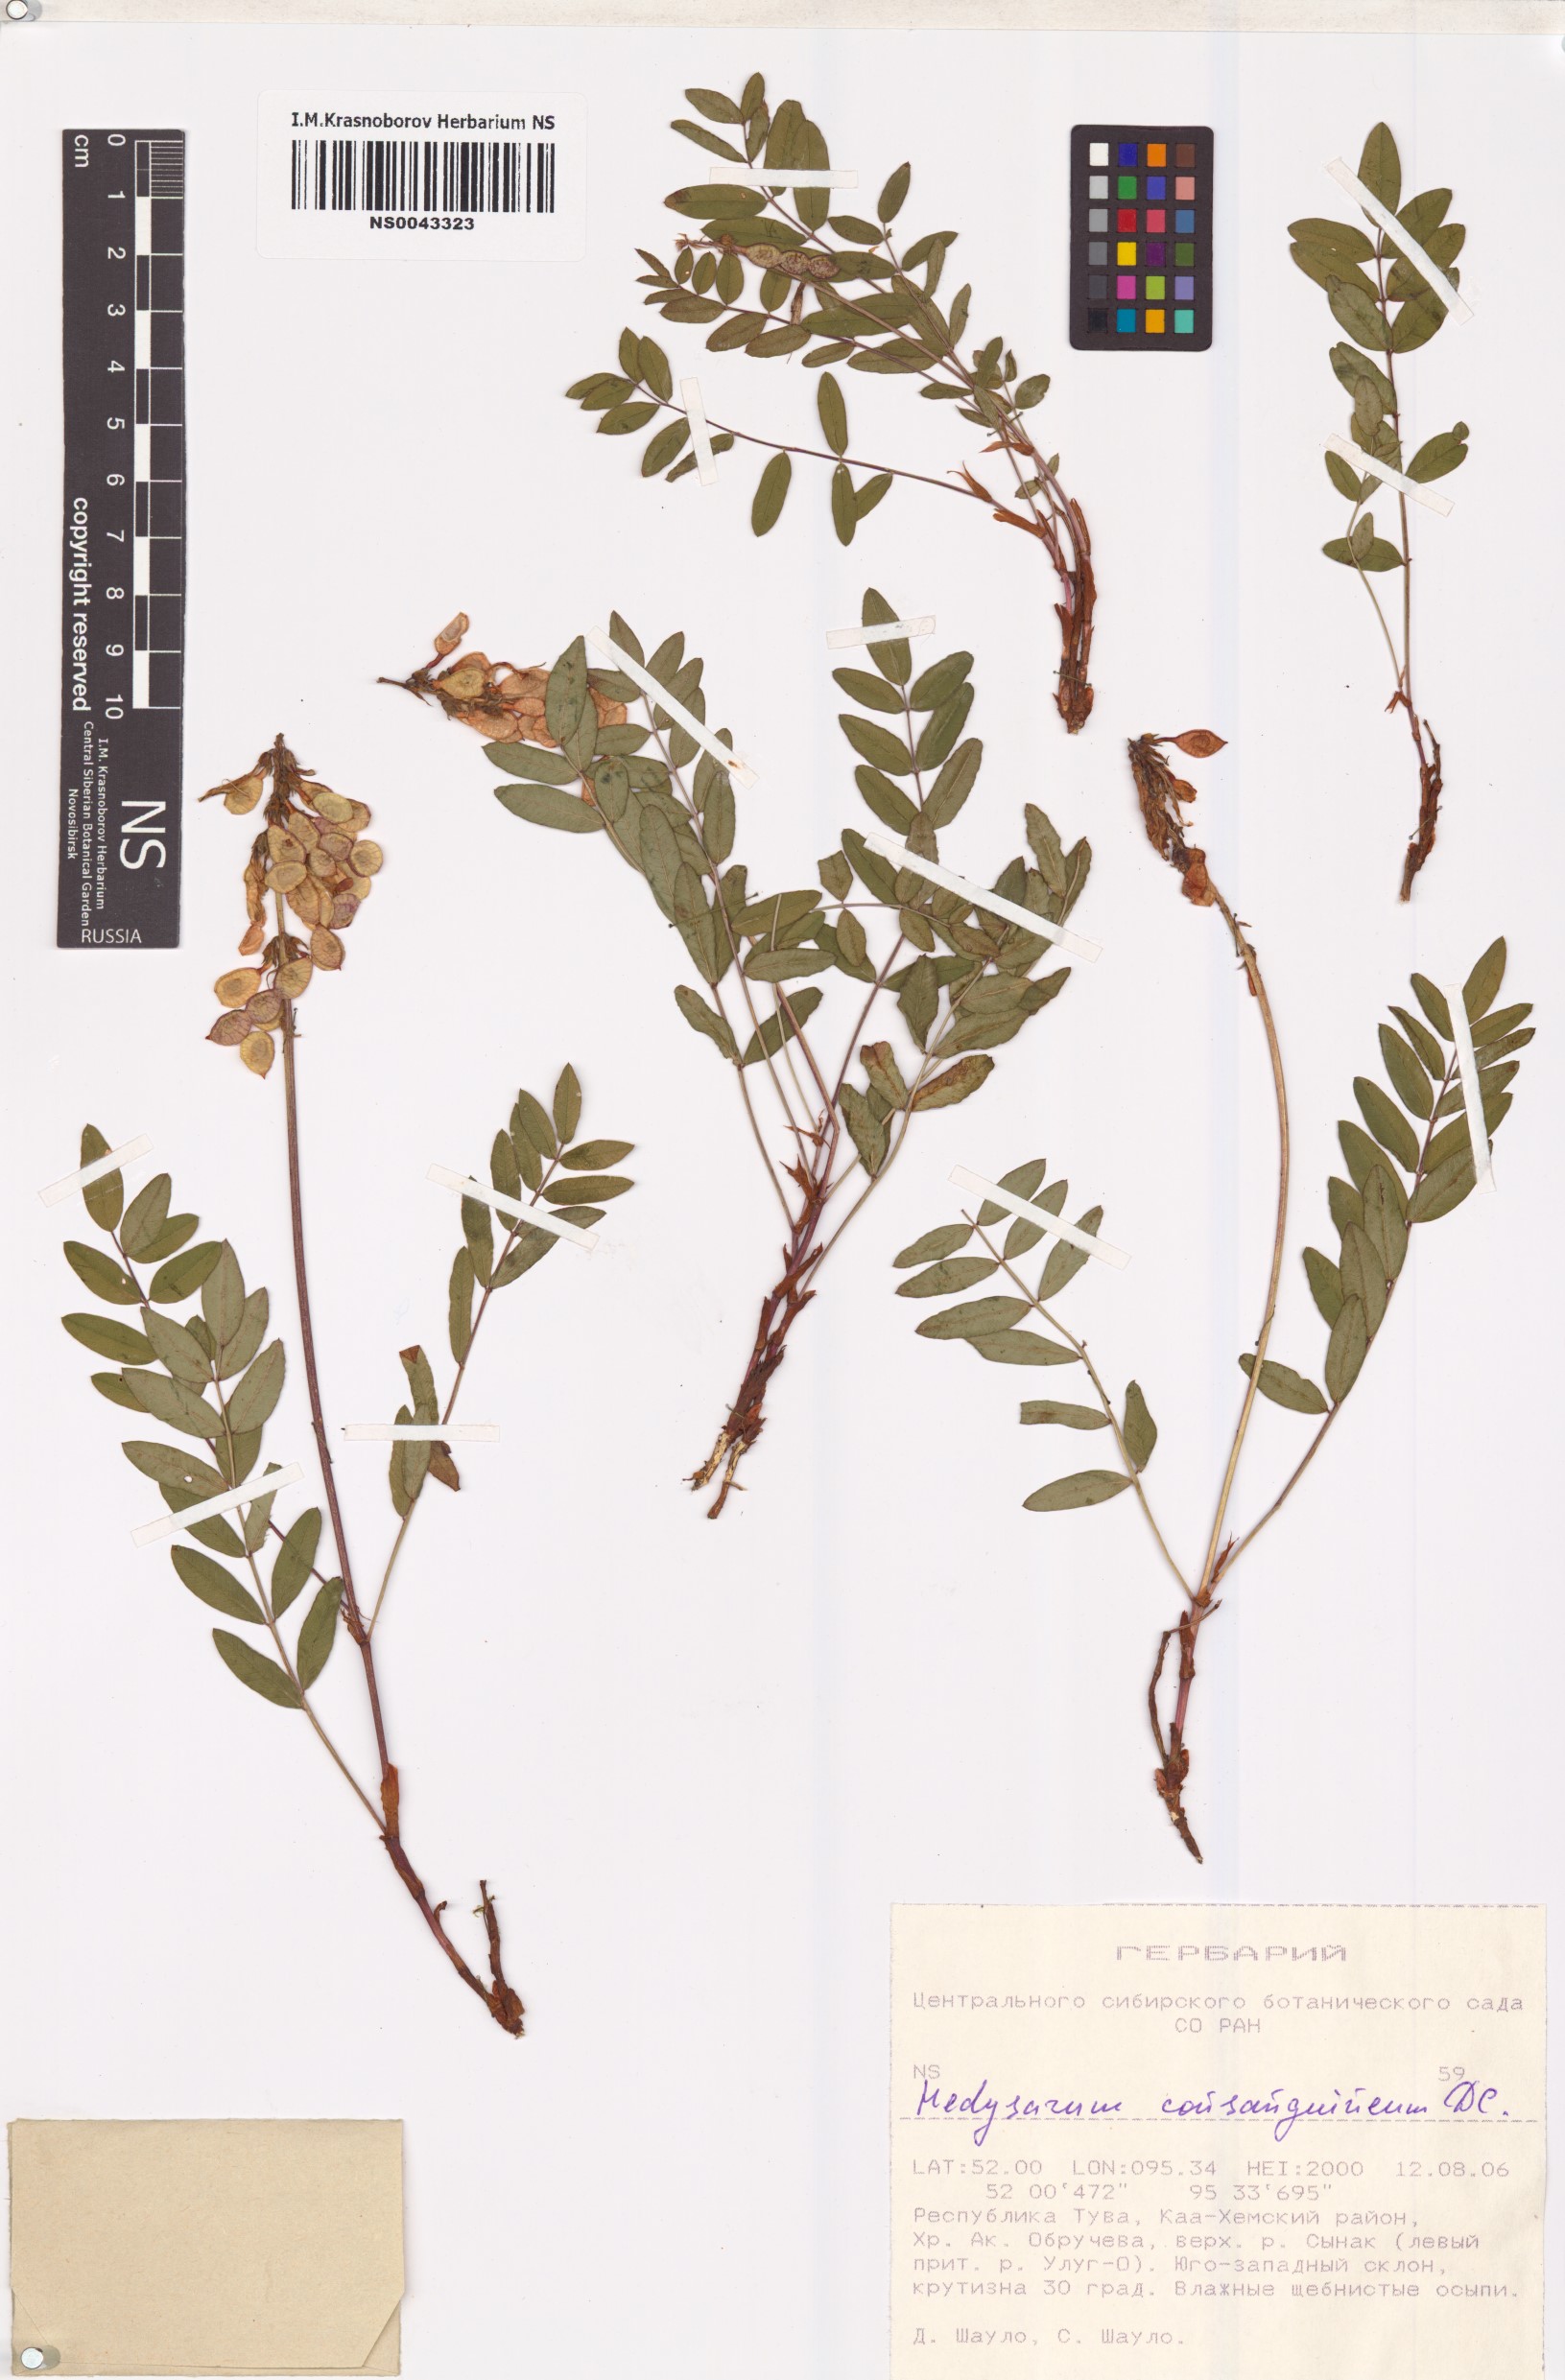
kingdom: Plantae
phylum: Tracheophyta
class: Magnoliopsida
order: Fabales
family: Fabaceae
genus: Hedysarum
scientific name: Hedysarum consanguineum
